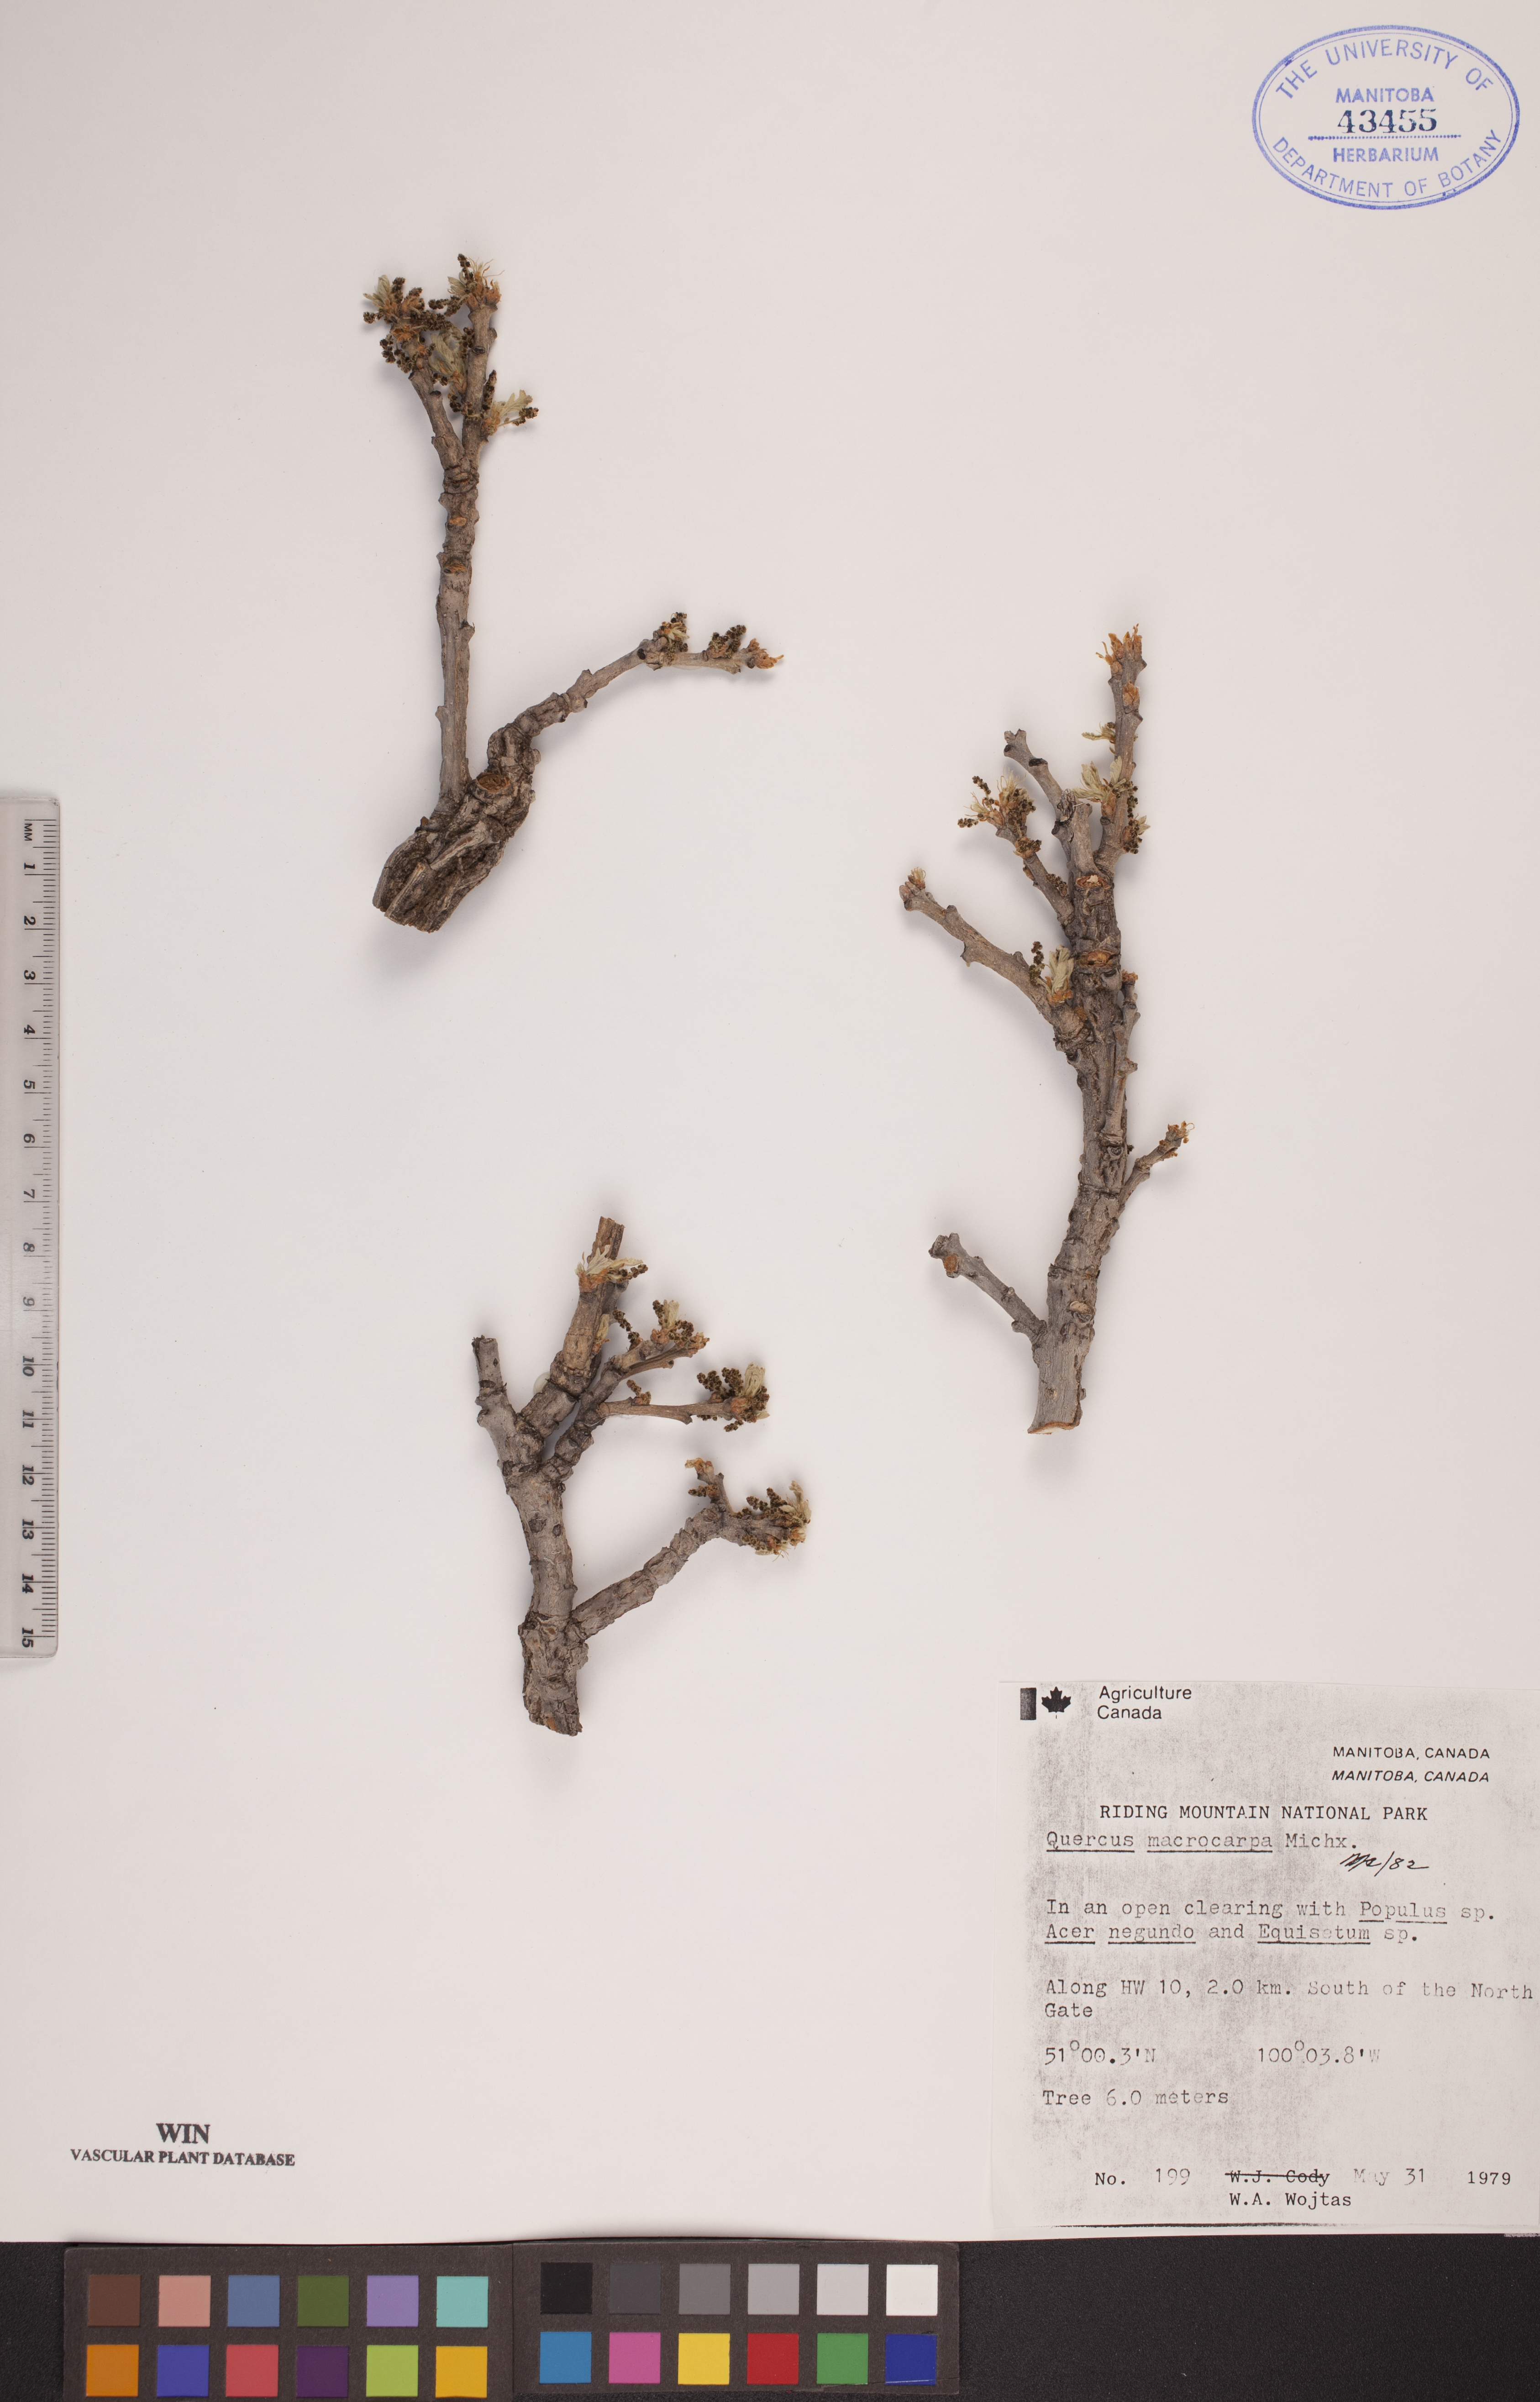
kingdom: Plantae
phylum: Tracheophyta
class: Magnoliopsida
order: Fagales
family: Fagaceae
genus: Quercus
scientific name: Quercus macrocarpa
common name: Bur oak
